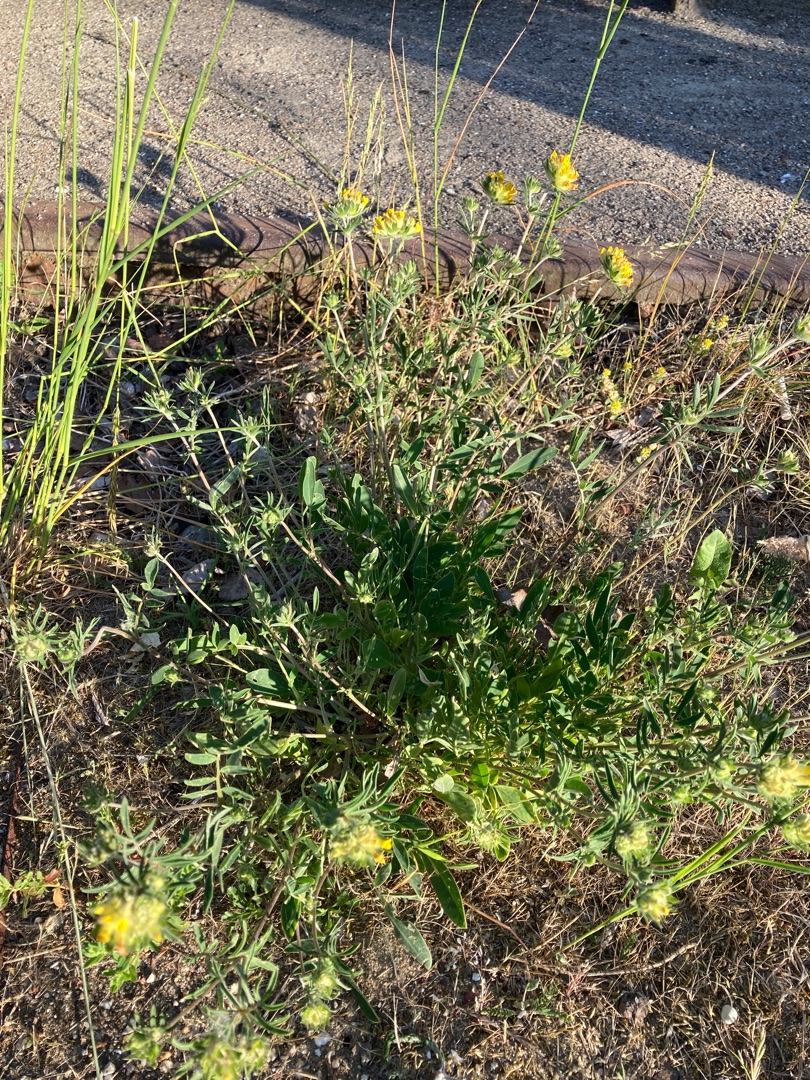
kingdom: Plantae
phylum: Tracheophyta
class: Magnoliopsida
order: Fabales
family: Fabaceae
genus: Anthyllis
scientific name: Anthyllis vulneraria
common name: Rundbælg
